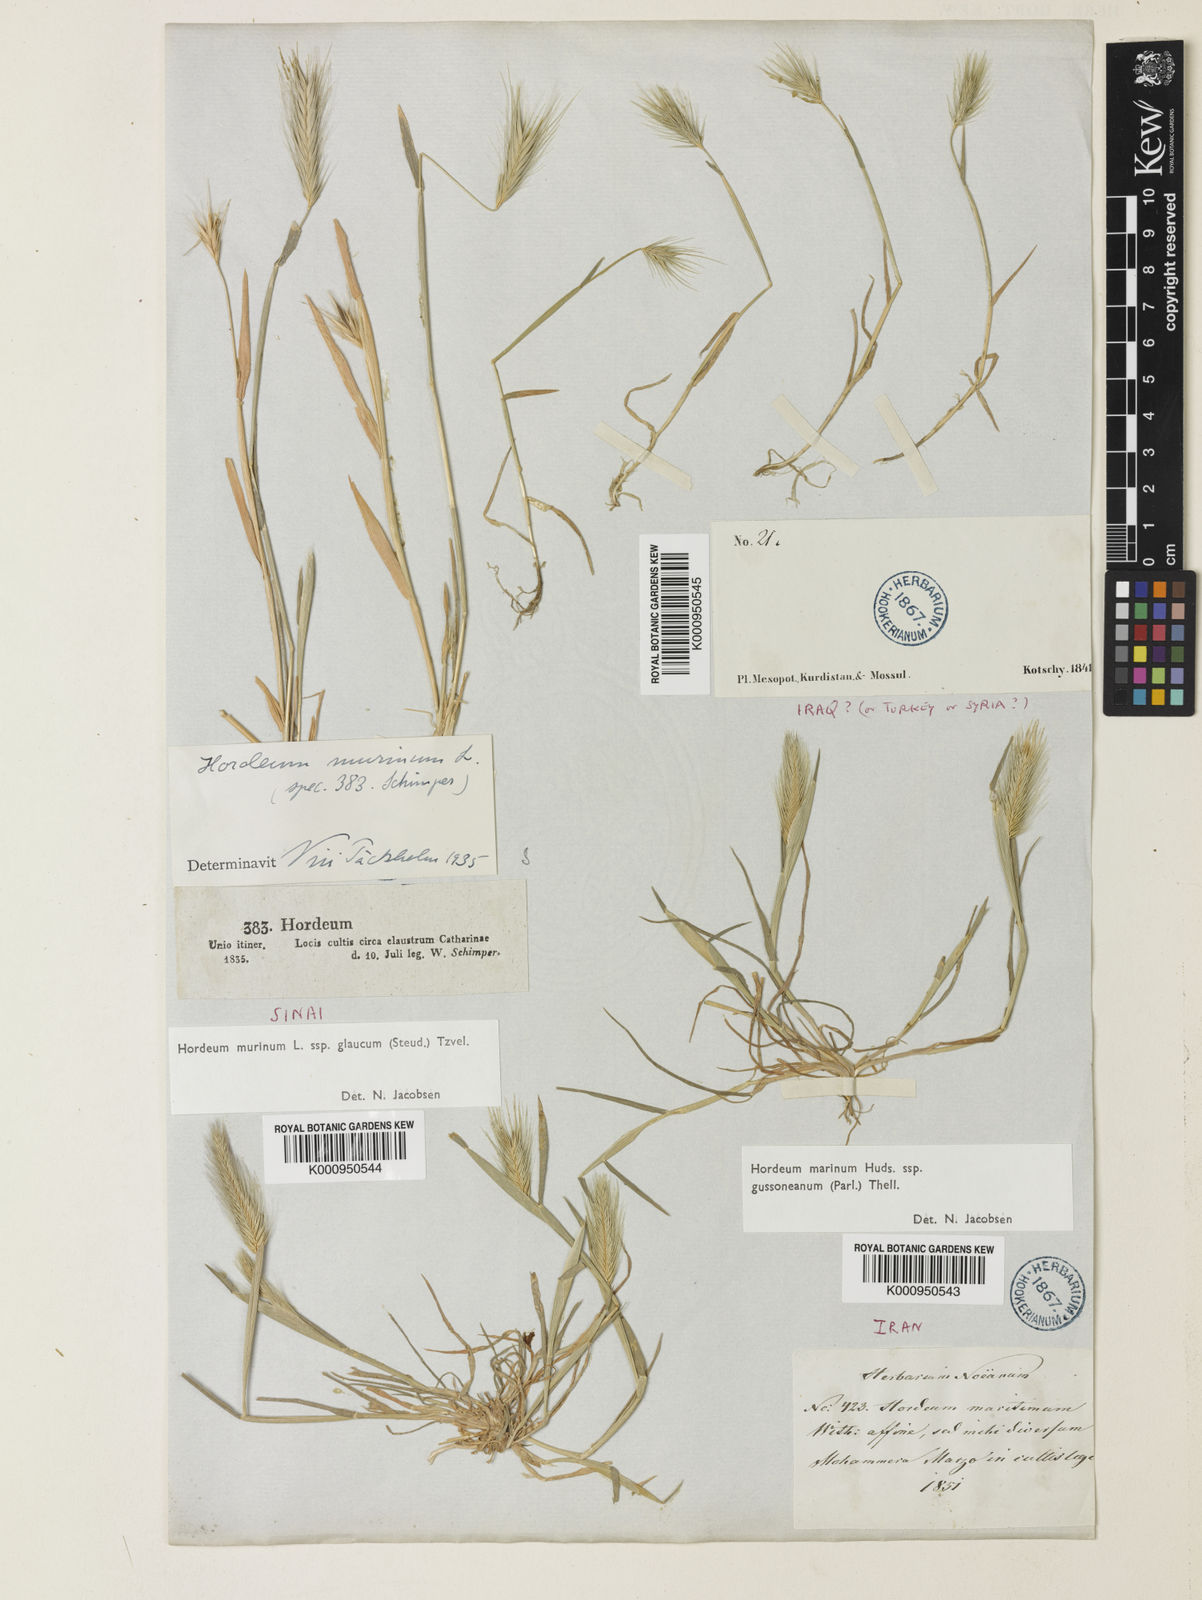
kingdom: Plantae
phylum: Tracheophyta
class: Liliopsida
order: Poales
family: Poaceae
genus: Hordeum
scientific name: Hordeum murinum
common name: Wall barley
